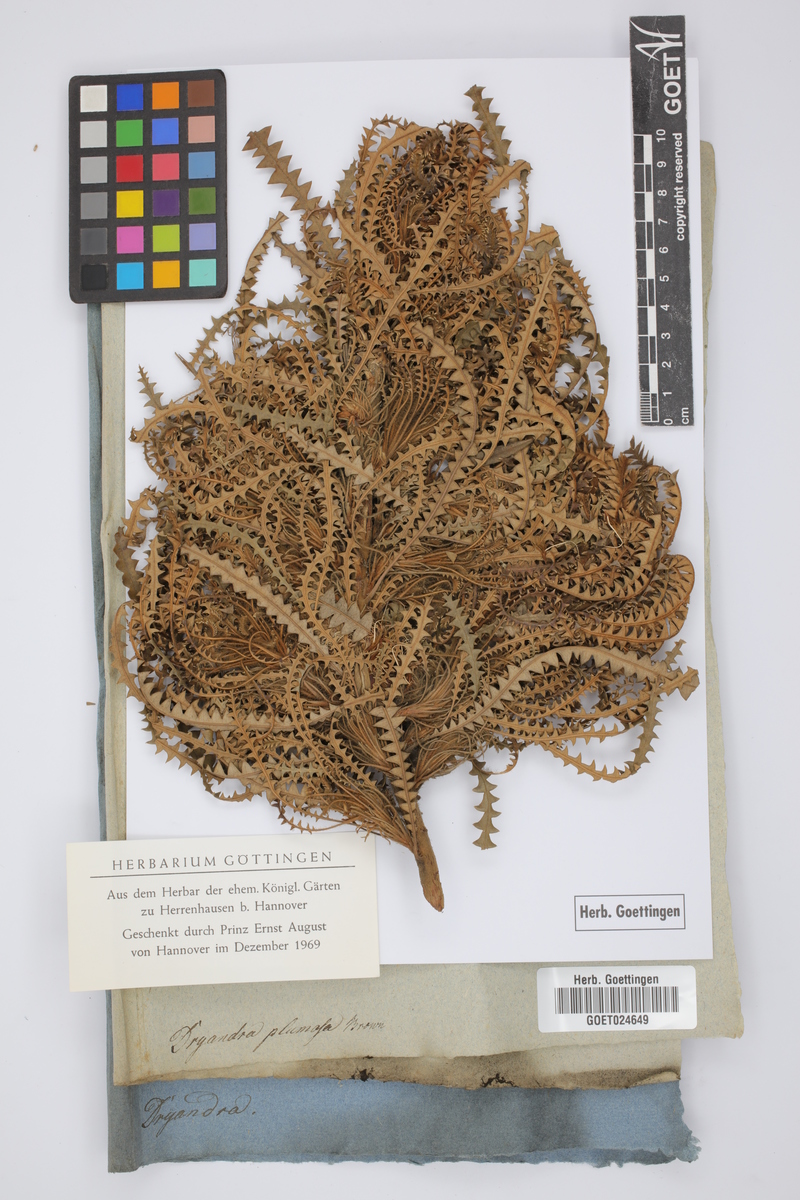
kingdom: Plantae
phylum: Tracheophyta
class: Magnoliopsida
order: Proteales
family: Proteaceae
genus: Banksia
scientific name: Banksia plumosa
